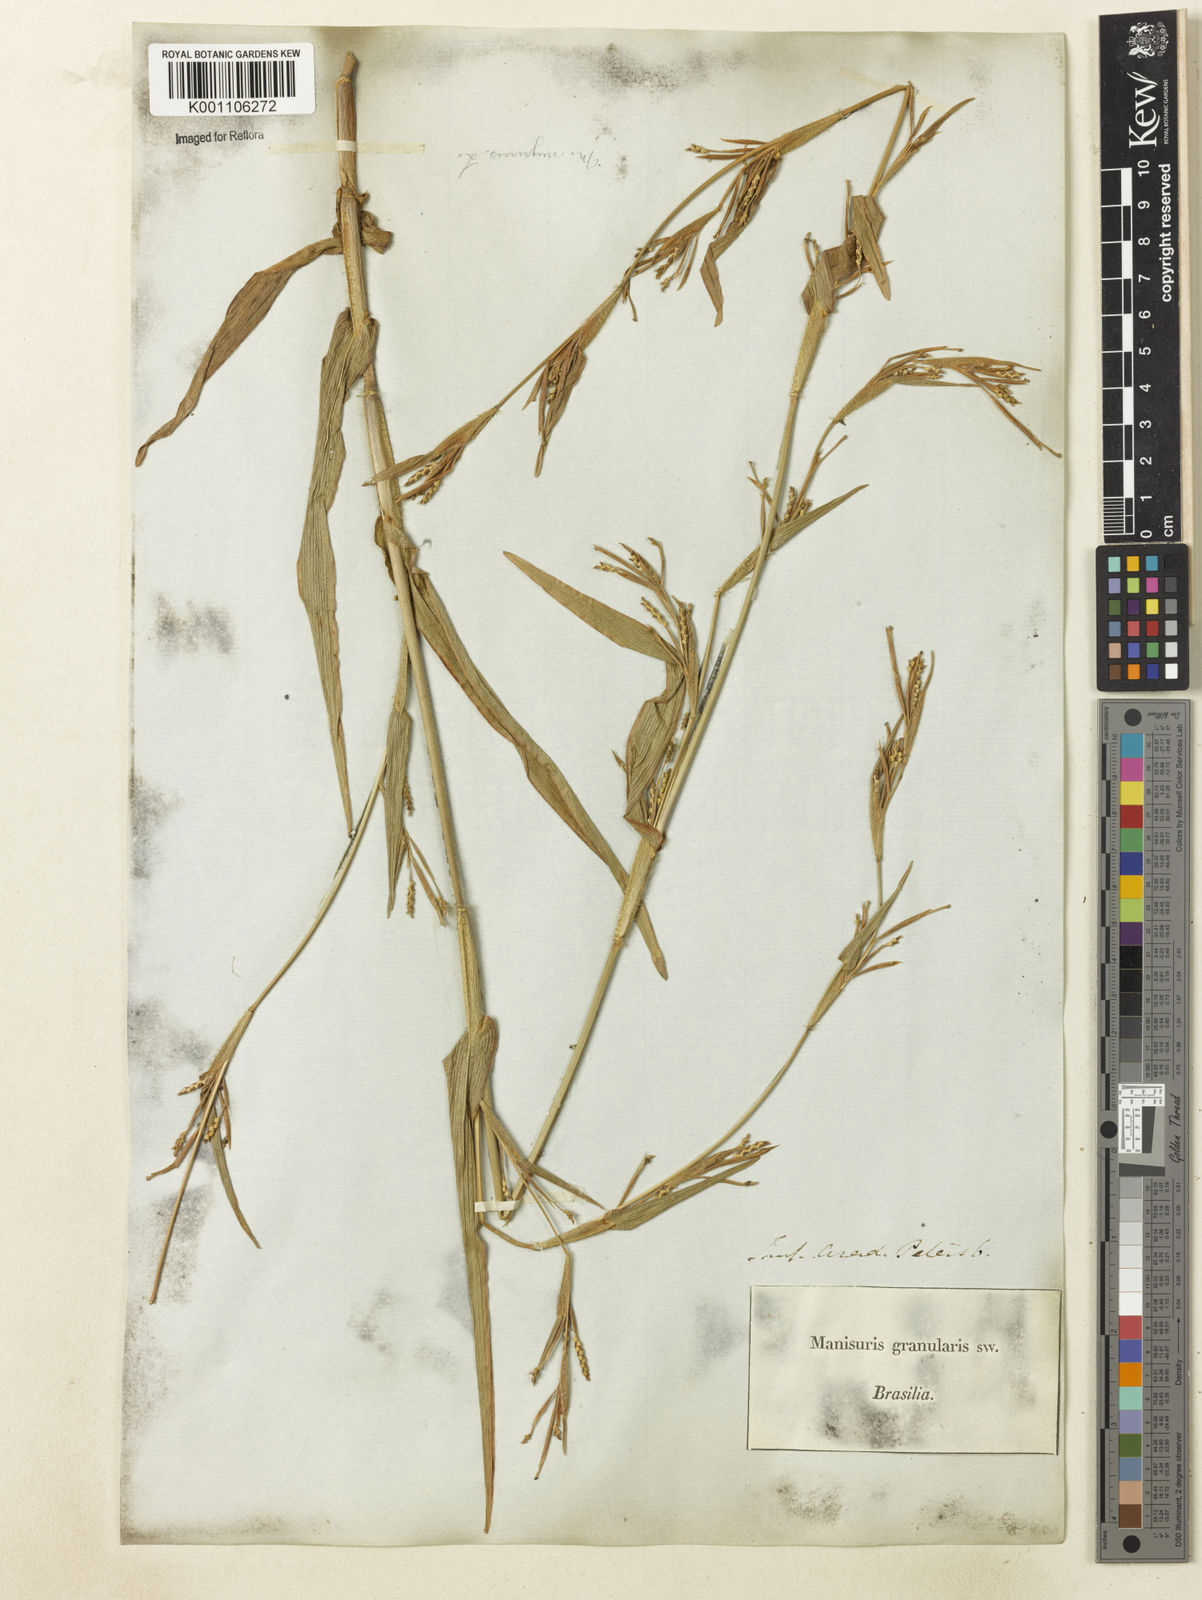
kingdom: Plantae
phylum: Tracheophyta
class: Liliopsida
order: Poales
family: Poaceae
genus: Hackelochloa
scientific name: Hackelochloa granularis
